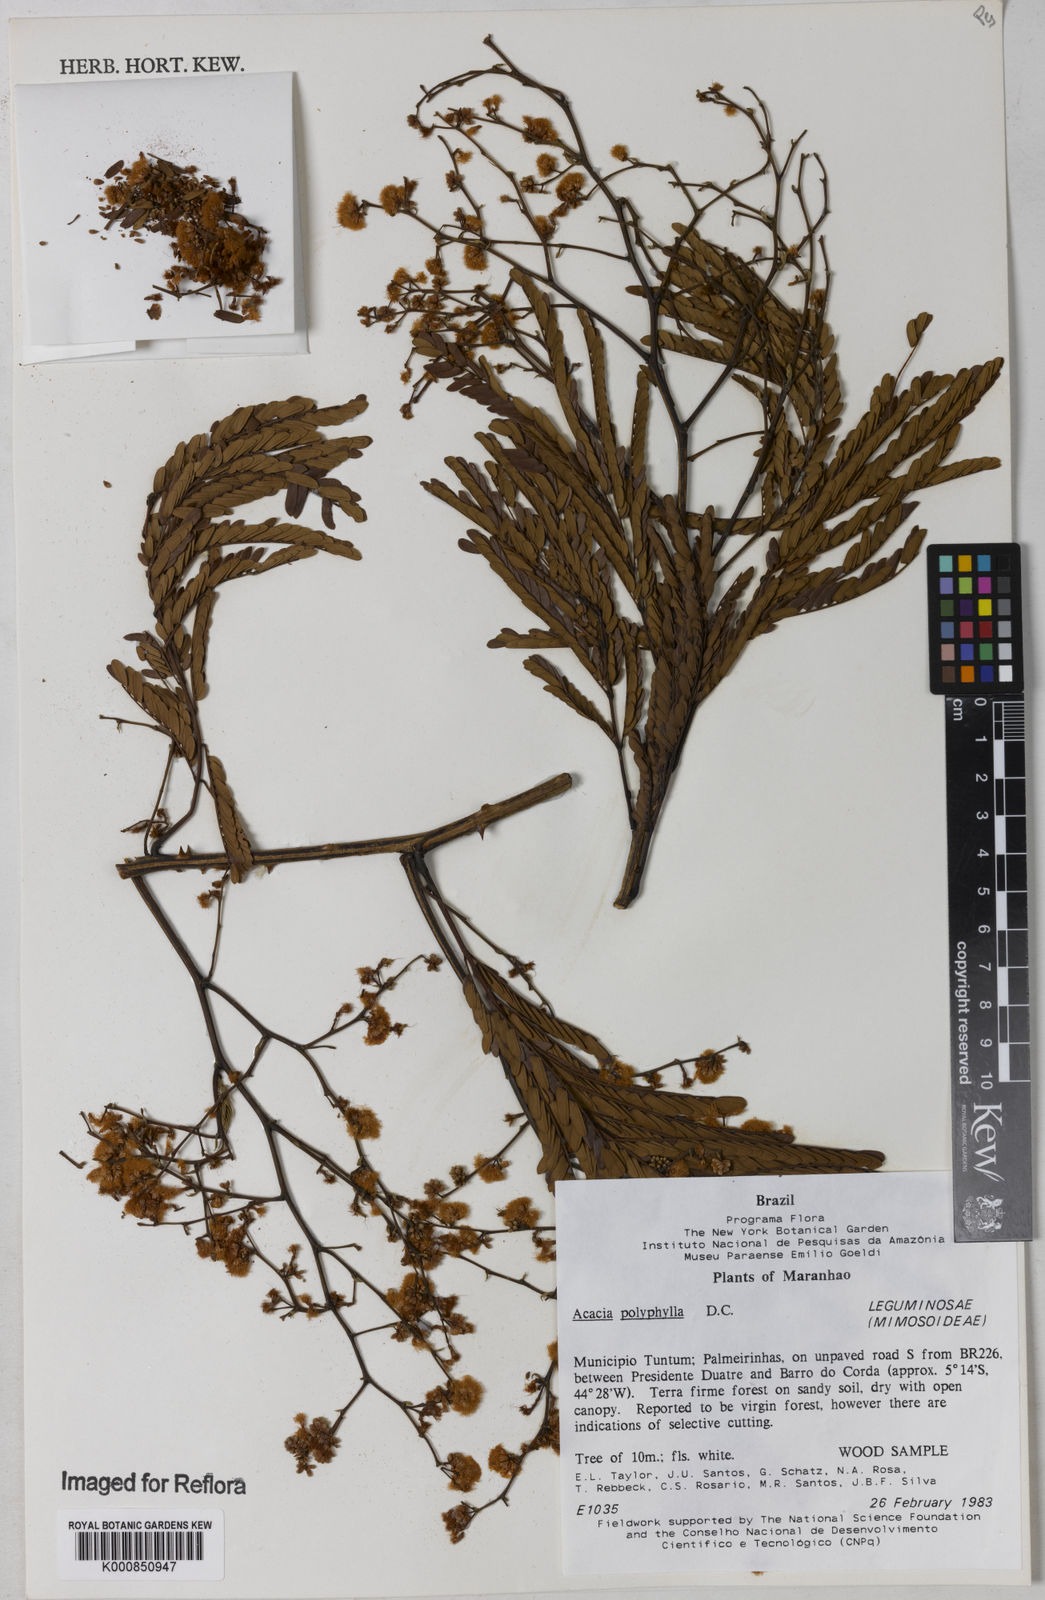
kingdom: Plantae
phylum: Tracheophyta
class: Magnoliopsida
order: Fabales
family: Fabaceae
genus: Senegalia
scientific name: Senegalia polyphylla
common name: White-tamarind
